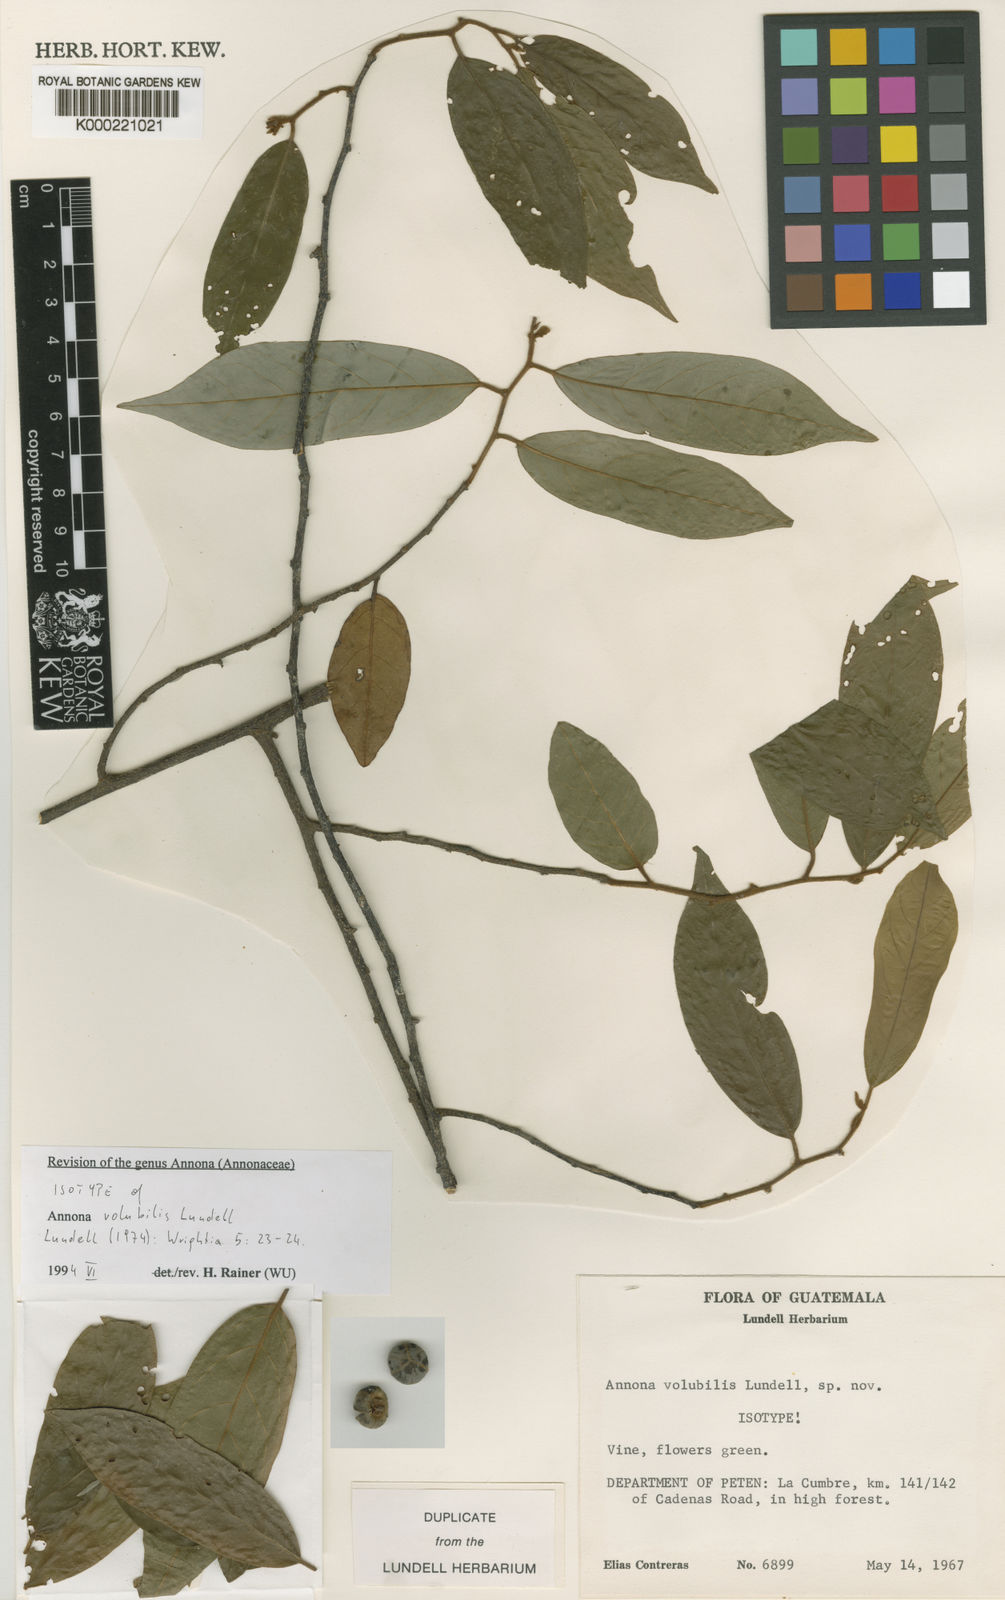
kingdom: Plantae
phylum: Tracheophyta
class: Magnoliopsida
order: Magnoliales
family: Annonaceae
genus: Annona
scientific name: Annona volubilis
